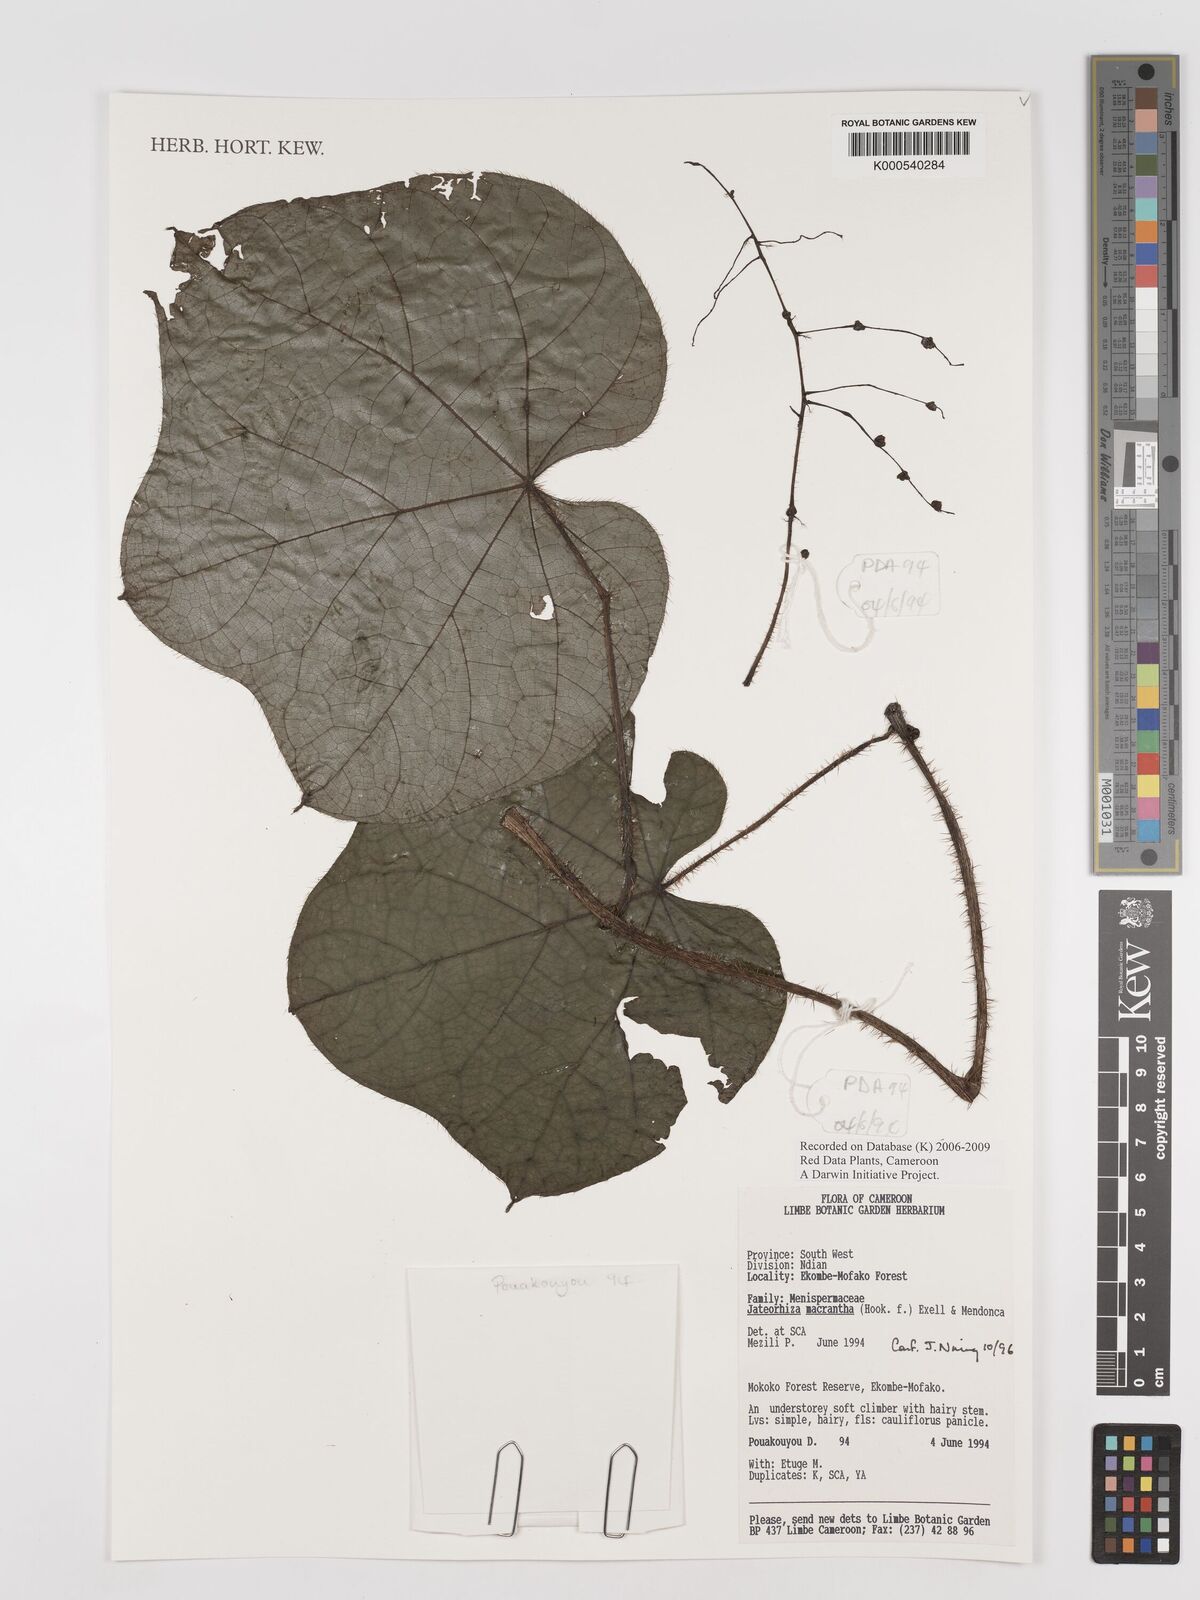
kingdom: Plantae
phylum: Tracheophyta
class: Magnoliopsida
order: Ranunculales
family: Menispermaceae
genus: Jateorhiza
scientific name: Jateorhiza
